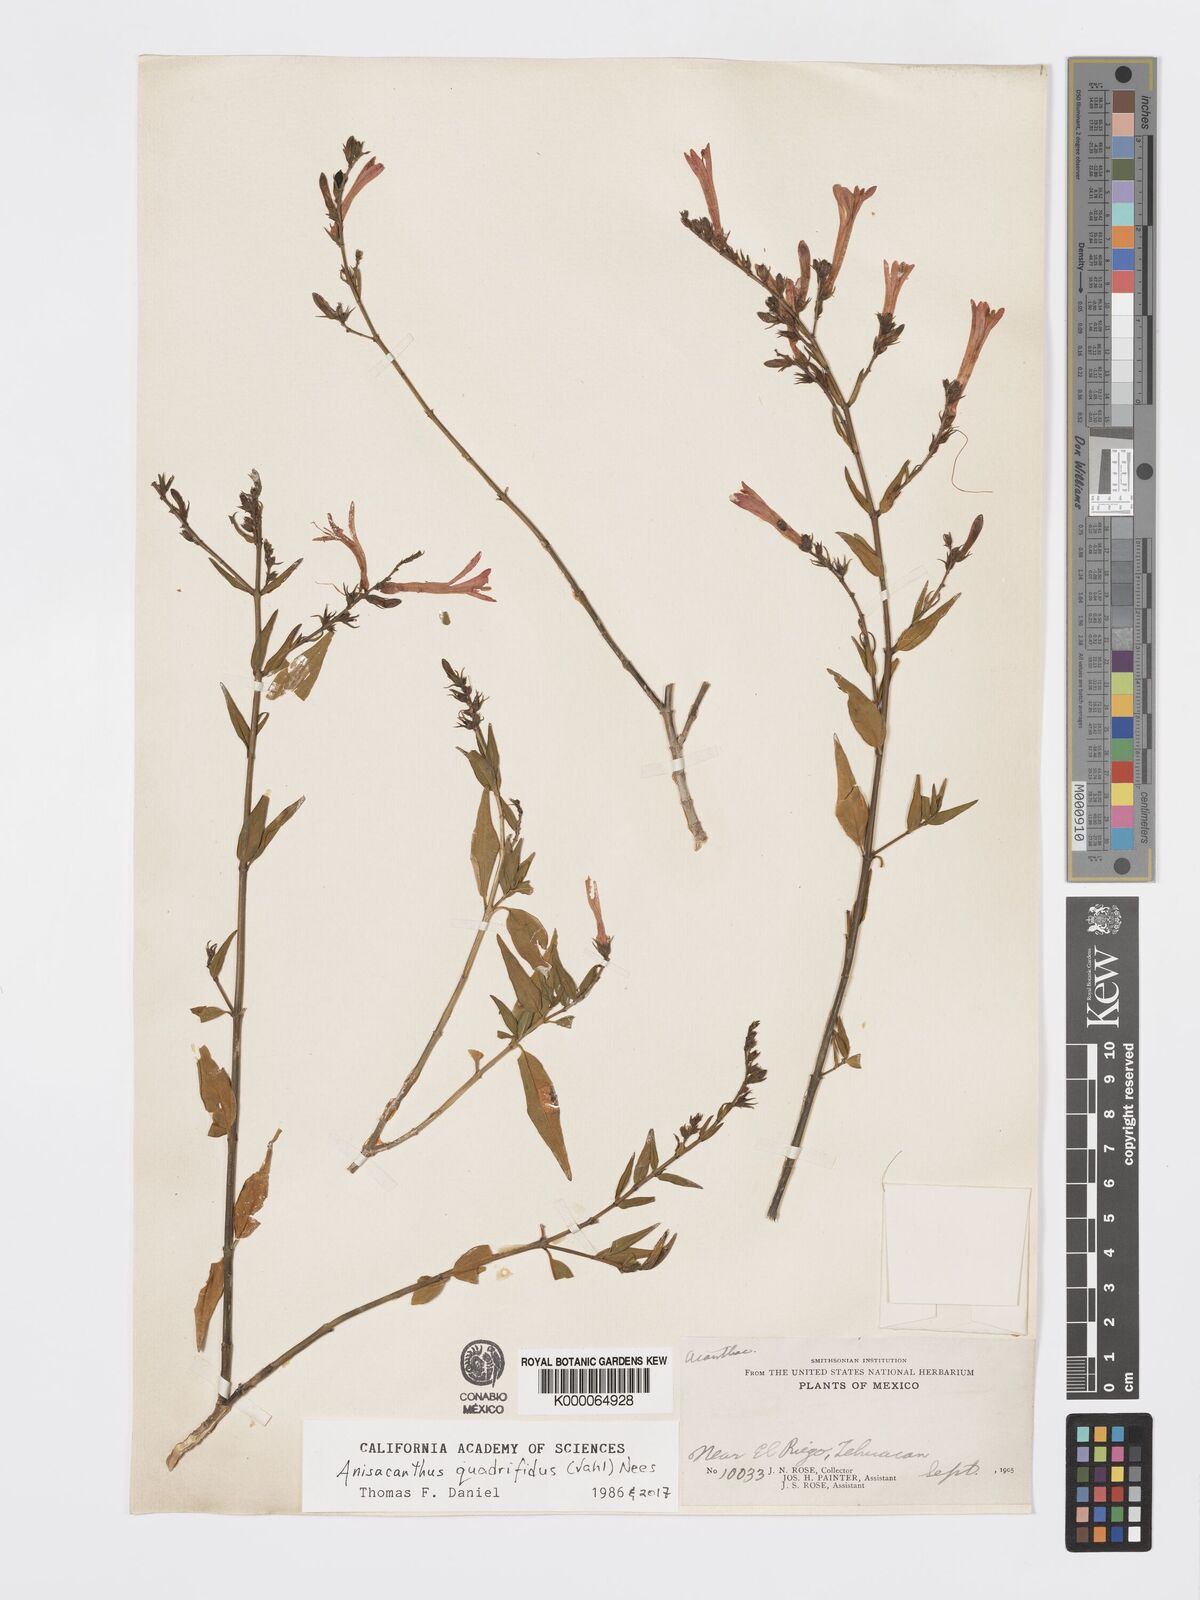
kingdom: Plantae
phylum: Tracheophyta
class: Magnoliopsida
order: Lamiales
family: Acanthaceae
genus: Anisacanthus
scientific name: Anisacanthus
